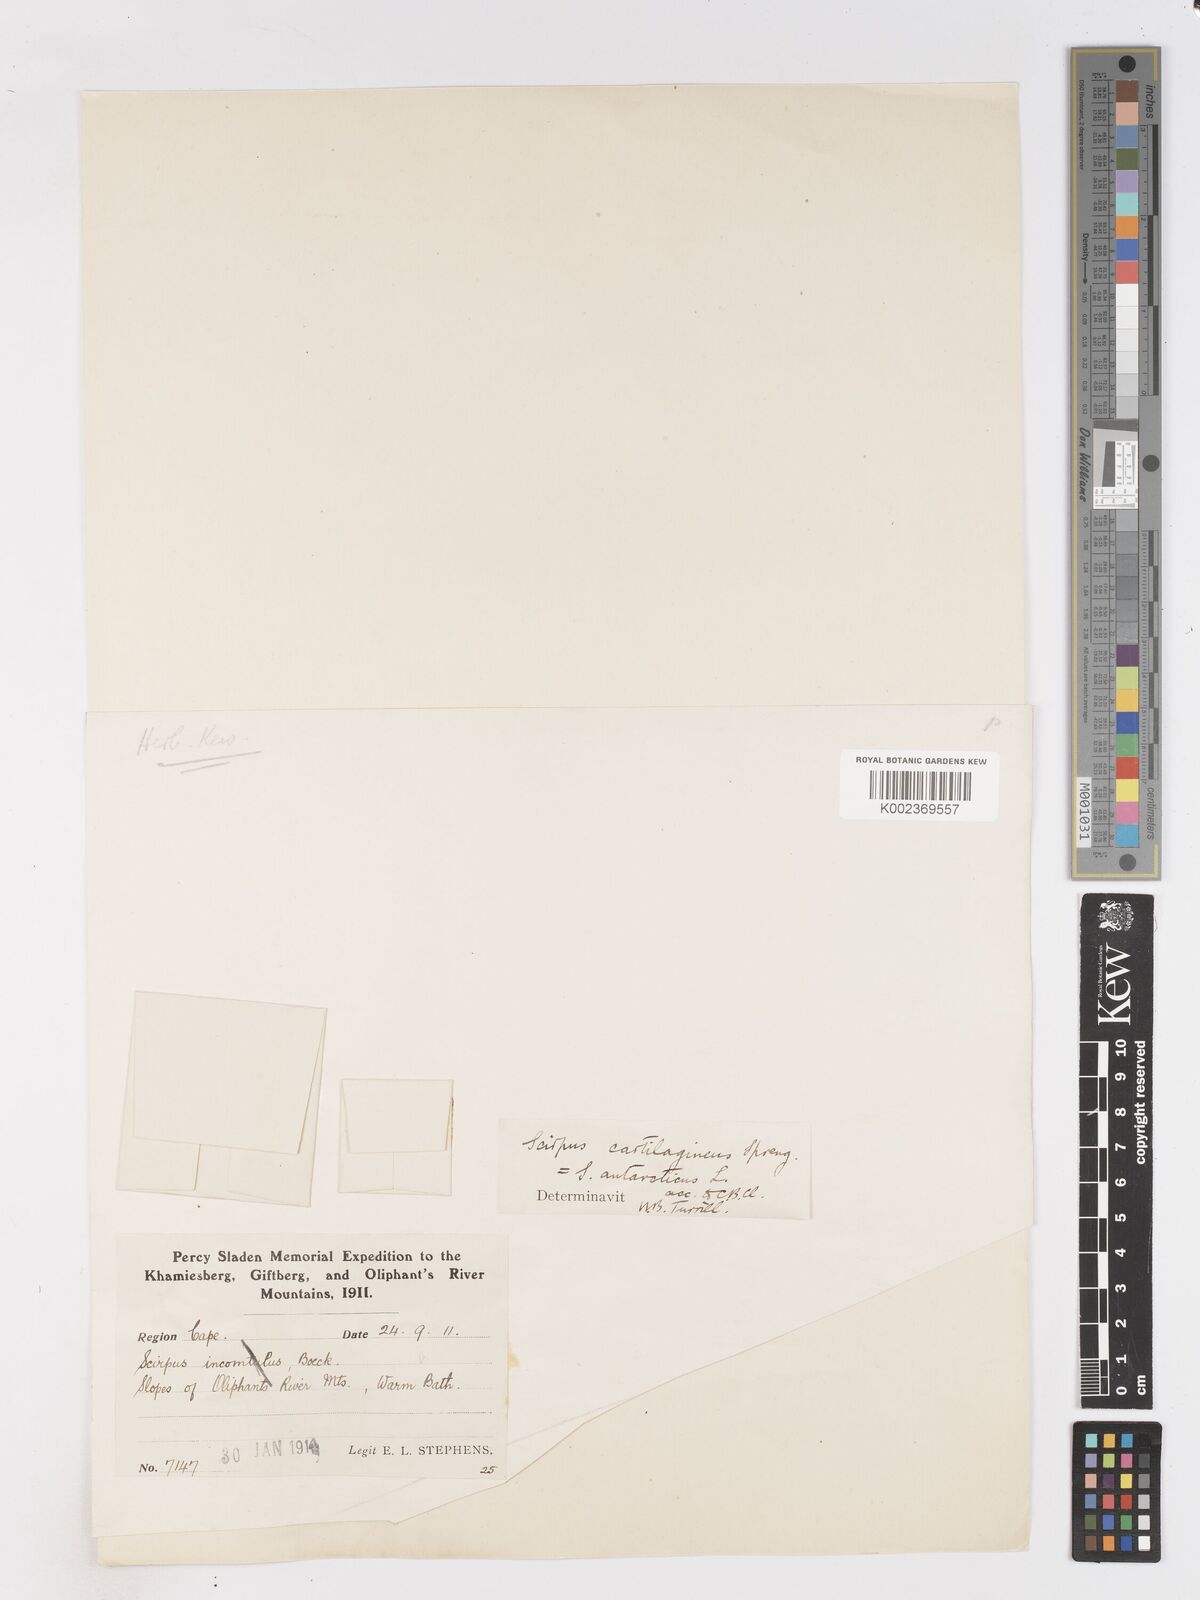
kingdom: Plantae
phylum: Tracheophyta
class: Liliopsida
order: Poales
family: Cyperaceae
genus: Isolepis
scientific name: Isolepis marginata
